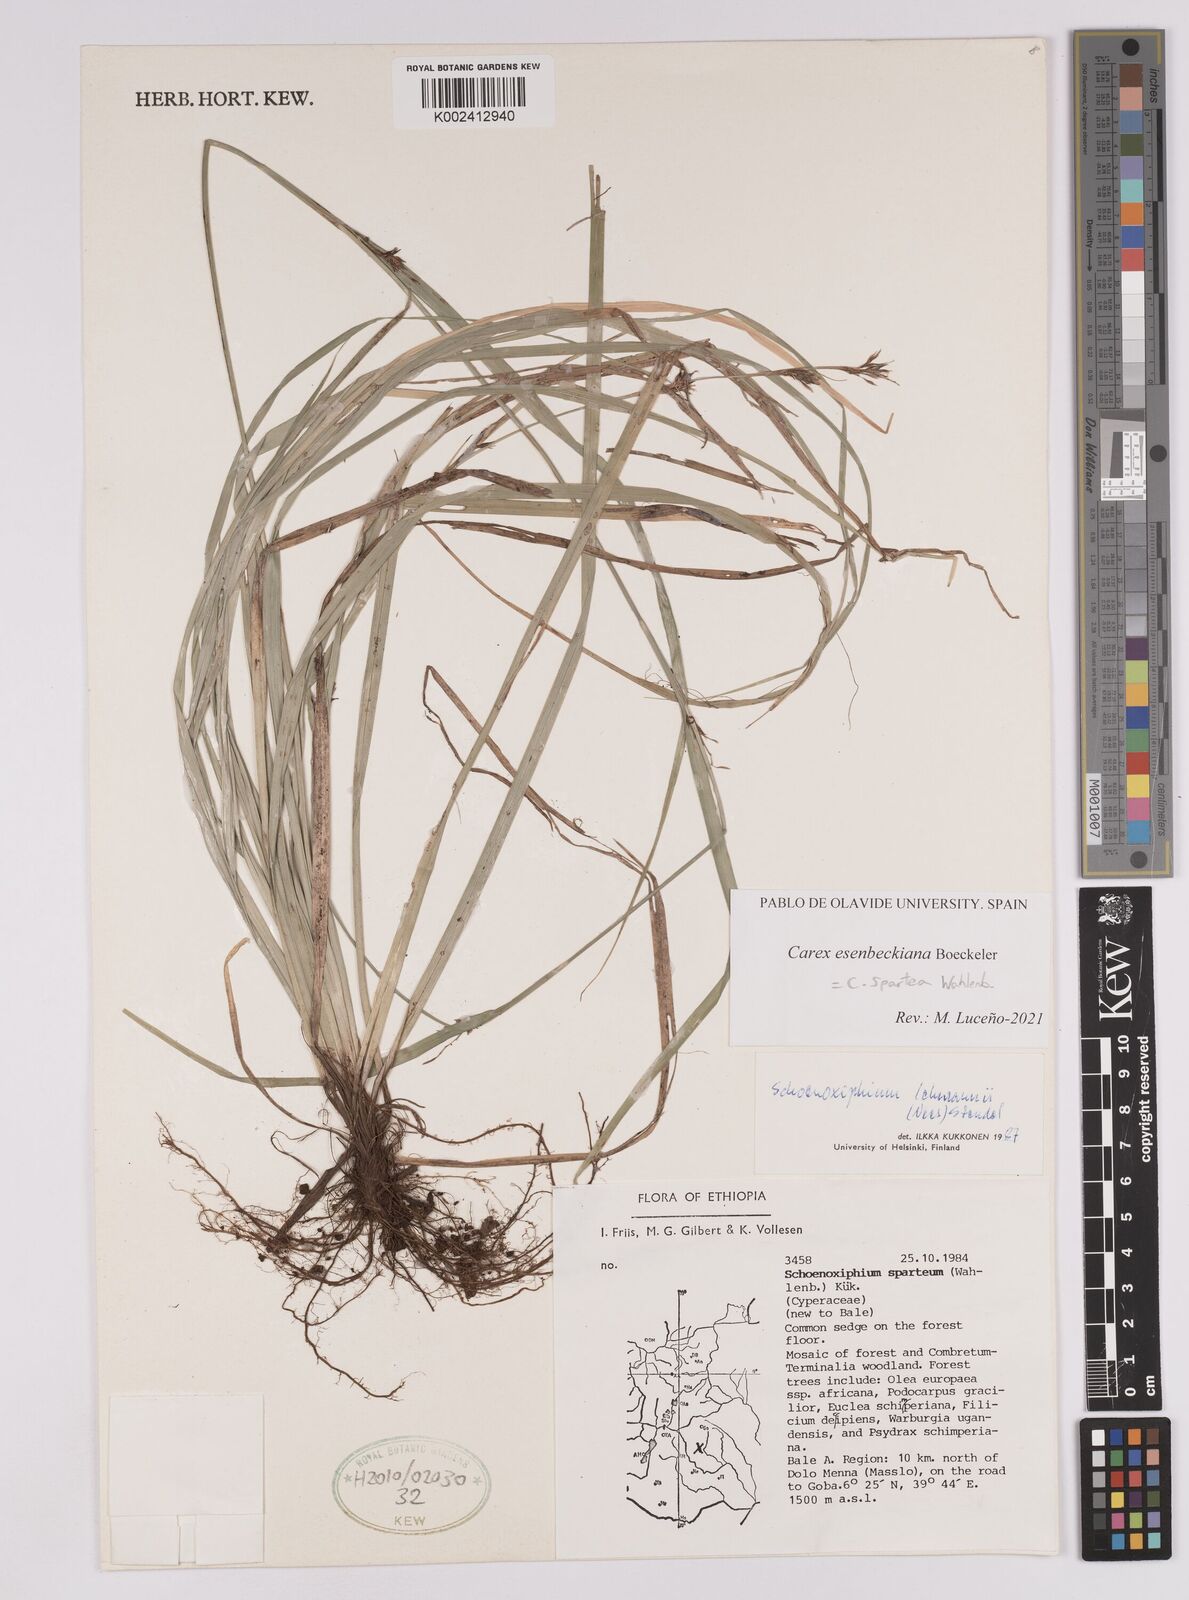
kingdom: Plantae
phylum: Tracheophyta
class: Liliopsida
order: Poales
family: Cyperaceae
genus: Carex
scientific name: Carex spartea
